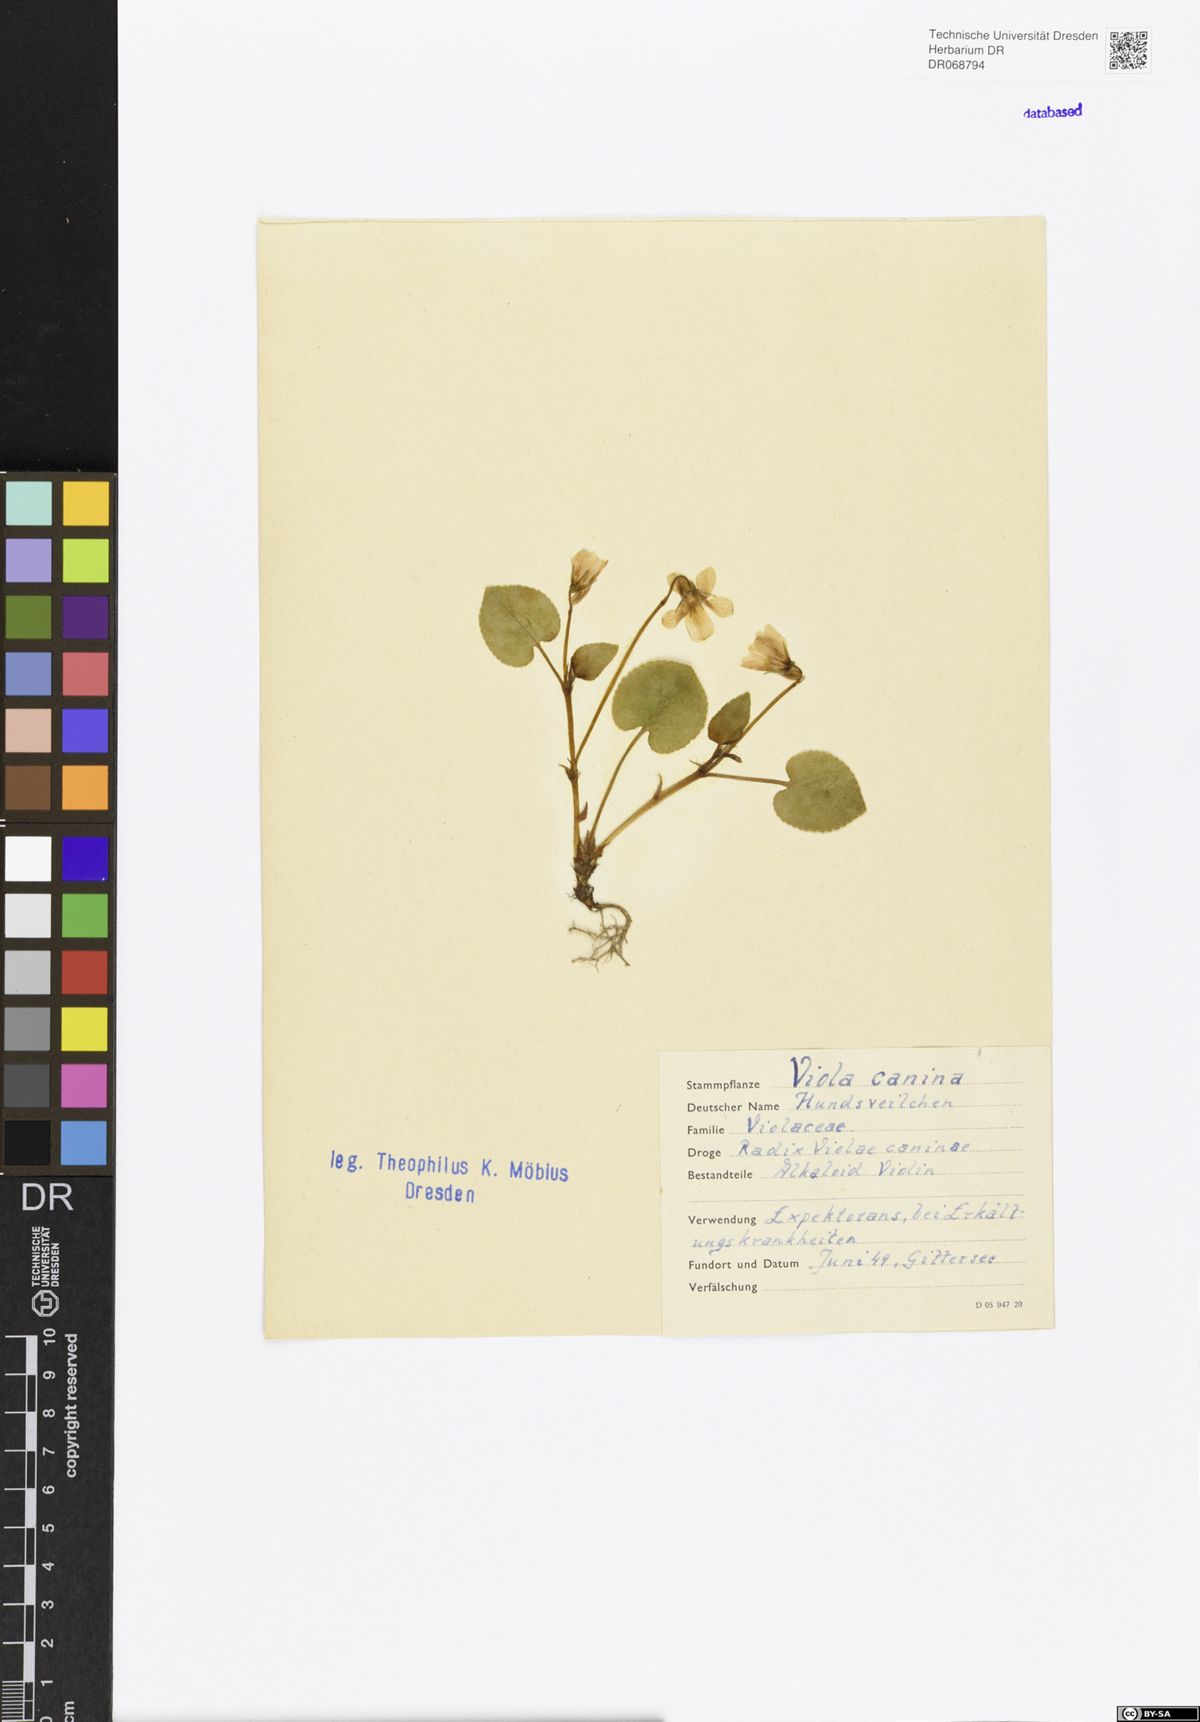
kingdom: Plantae
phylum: Tracheophyta
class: Magnoliopsida
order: Malpighiales
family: Violaceae
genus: Viola
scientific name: Viola canina
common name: Heath dog-violet
